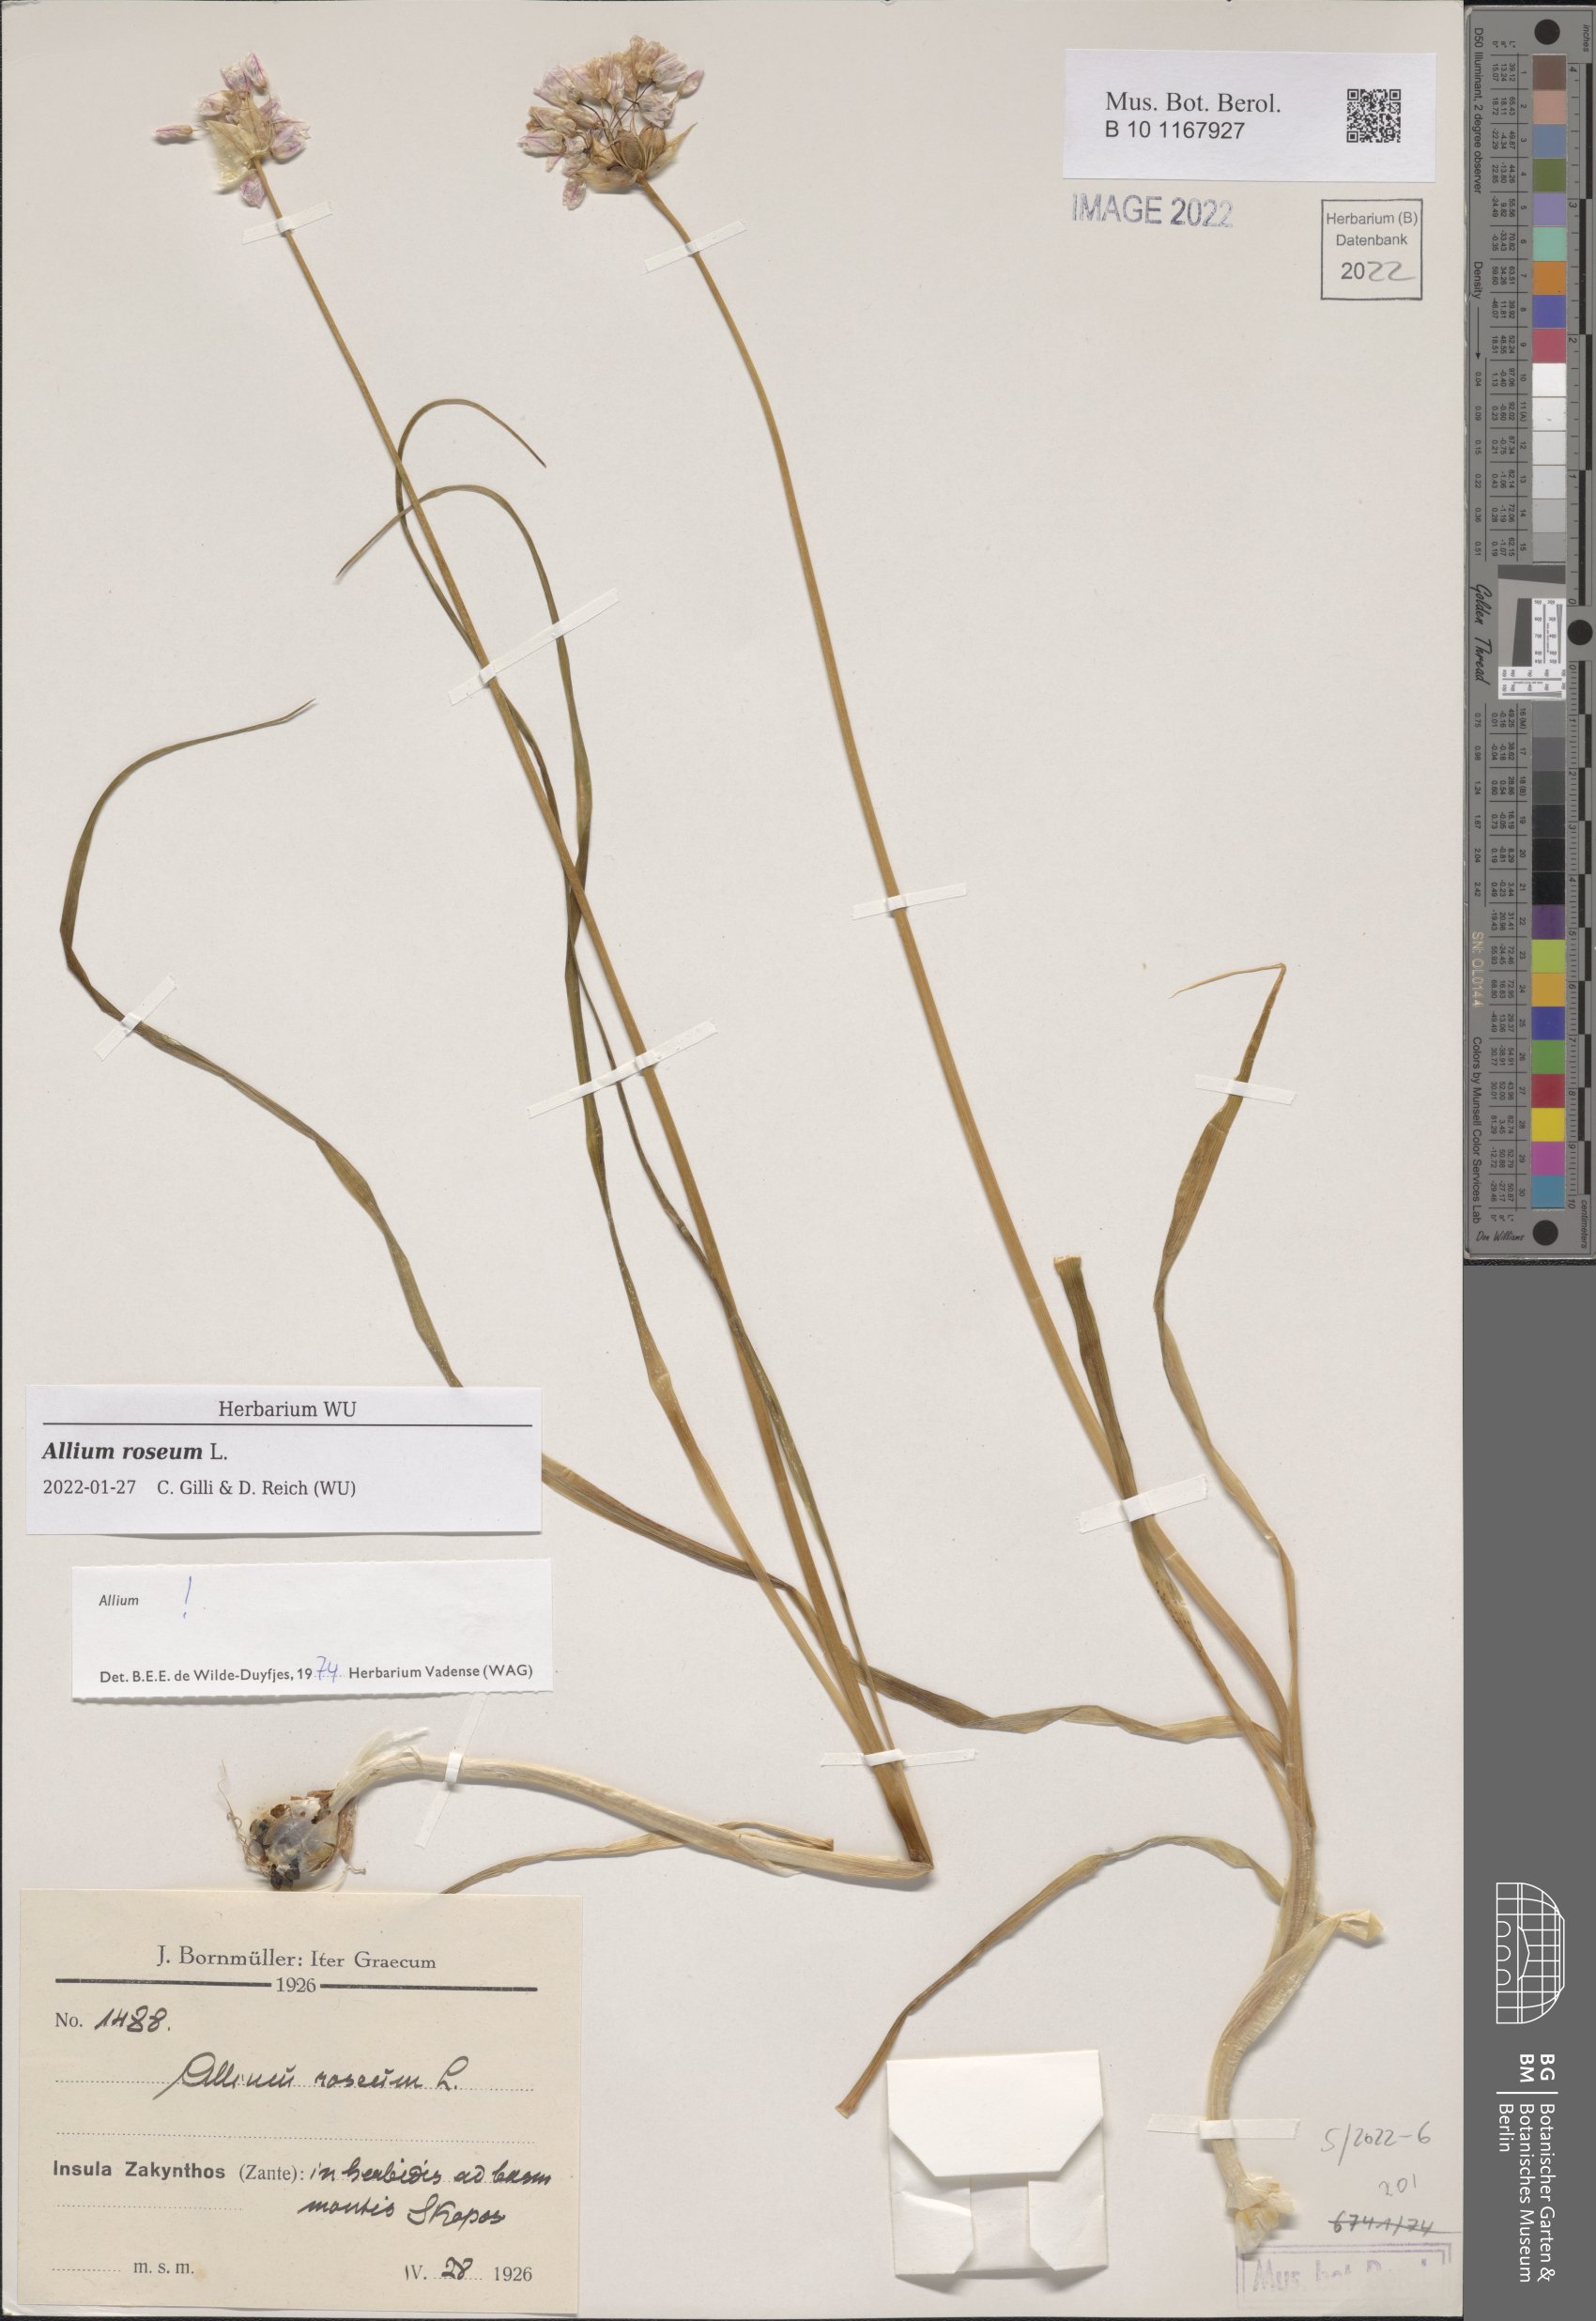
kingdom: Plantae
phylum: Tracheophyta
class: Liliopsida
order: Asparagales
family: Amaryllidaceae
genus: Allium
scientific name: Allium roseum
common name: Rosy garlic
